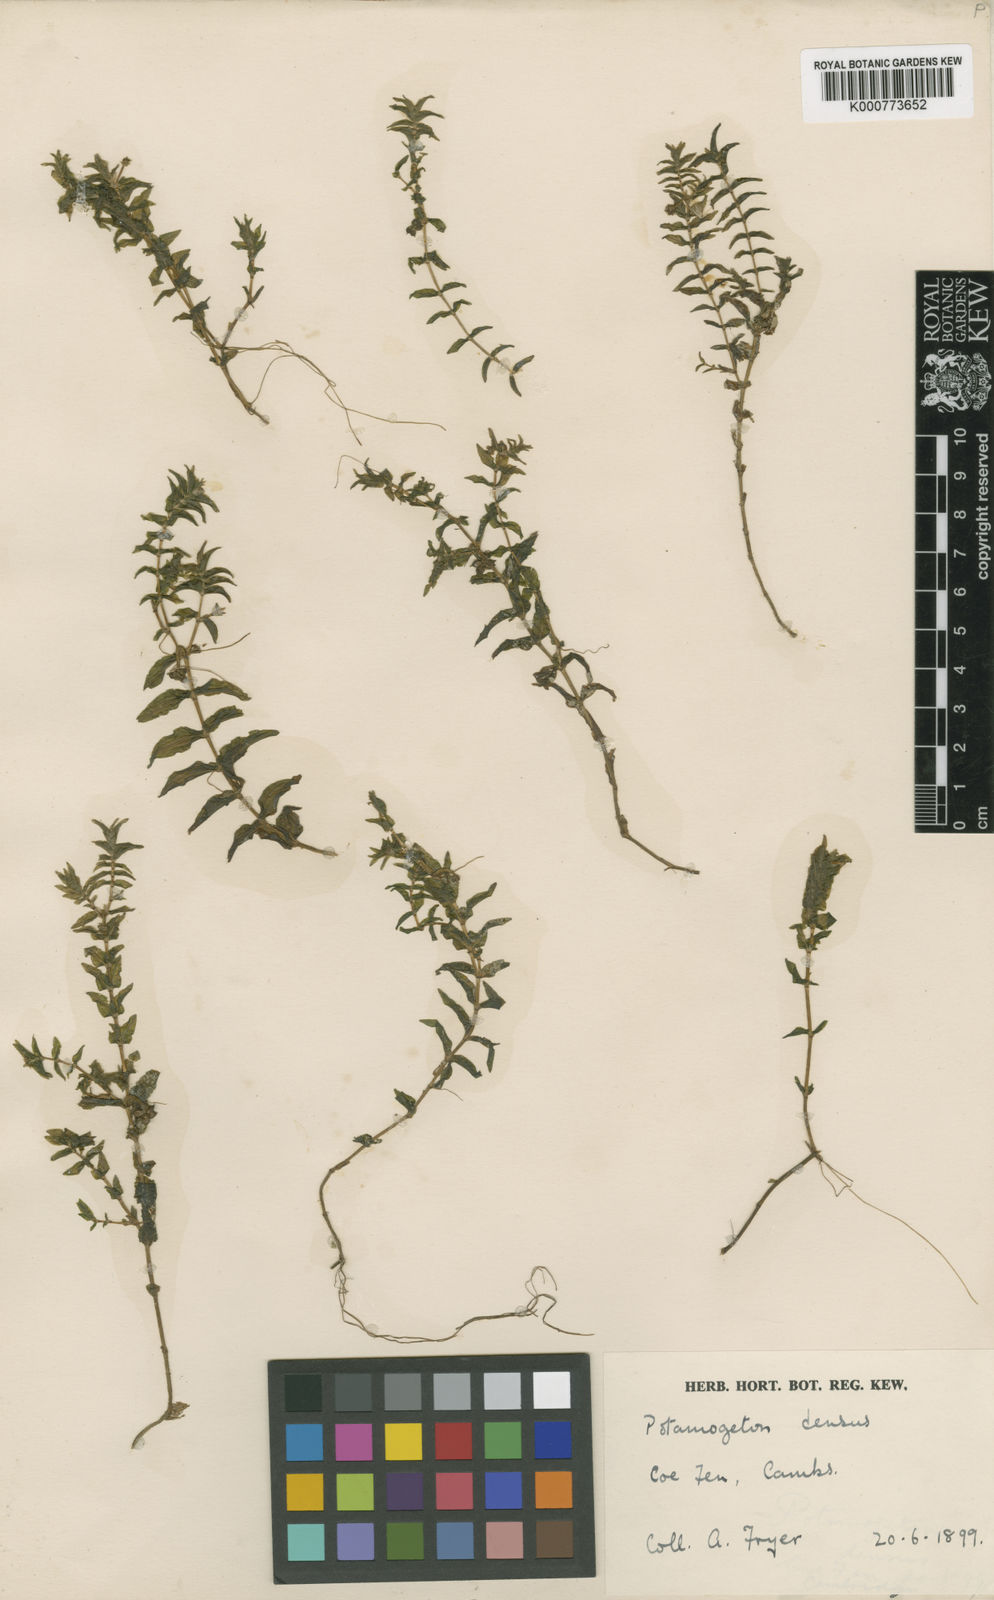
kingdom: Plantae
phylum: Tracheophyta
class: Liliopsida
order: Alismatales
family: Potamogetonaceae
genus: Groenlandia
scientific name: Groenlandia densa
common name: Opposite-leaved pondweed
